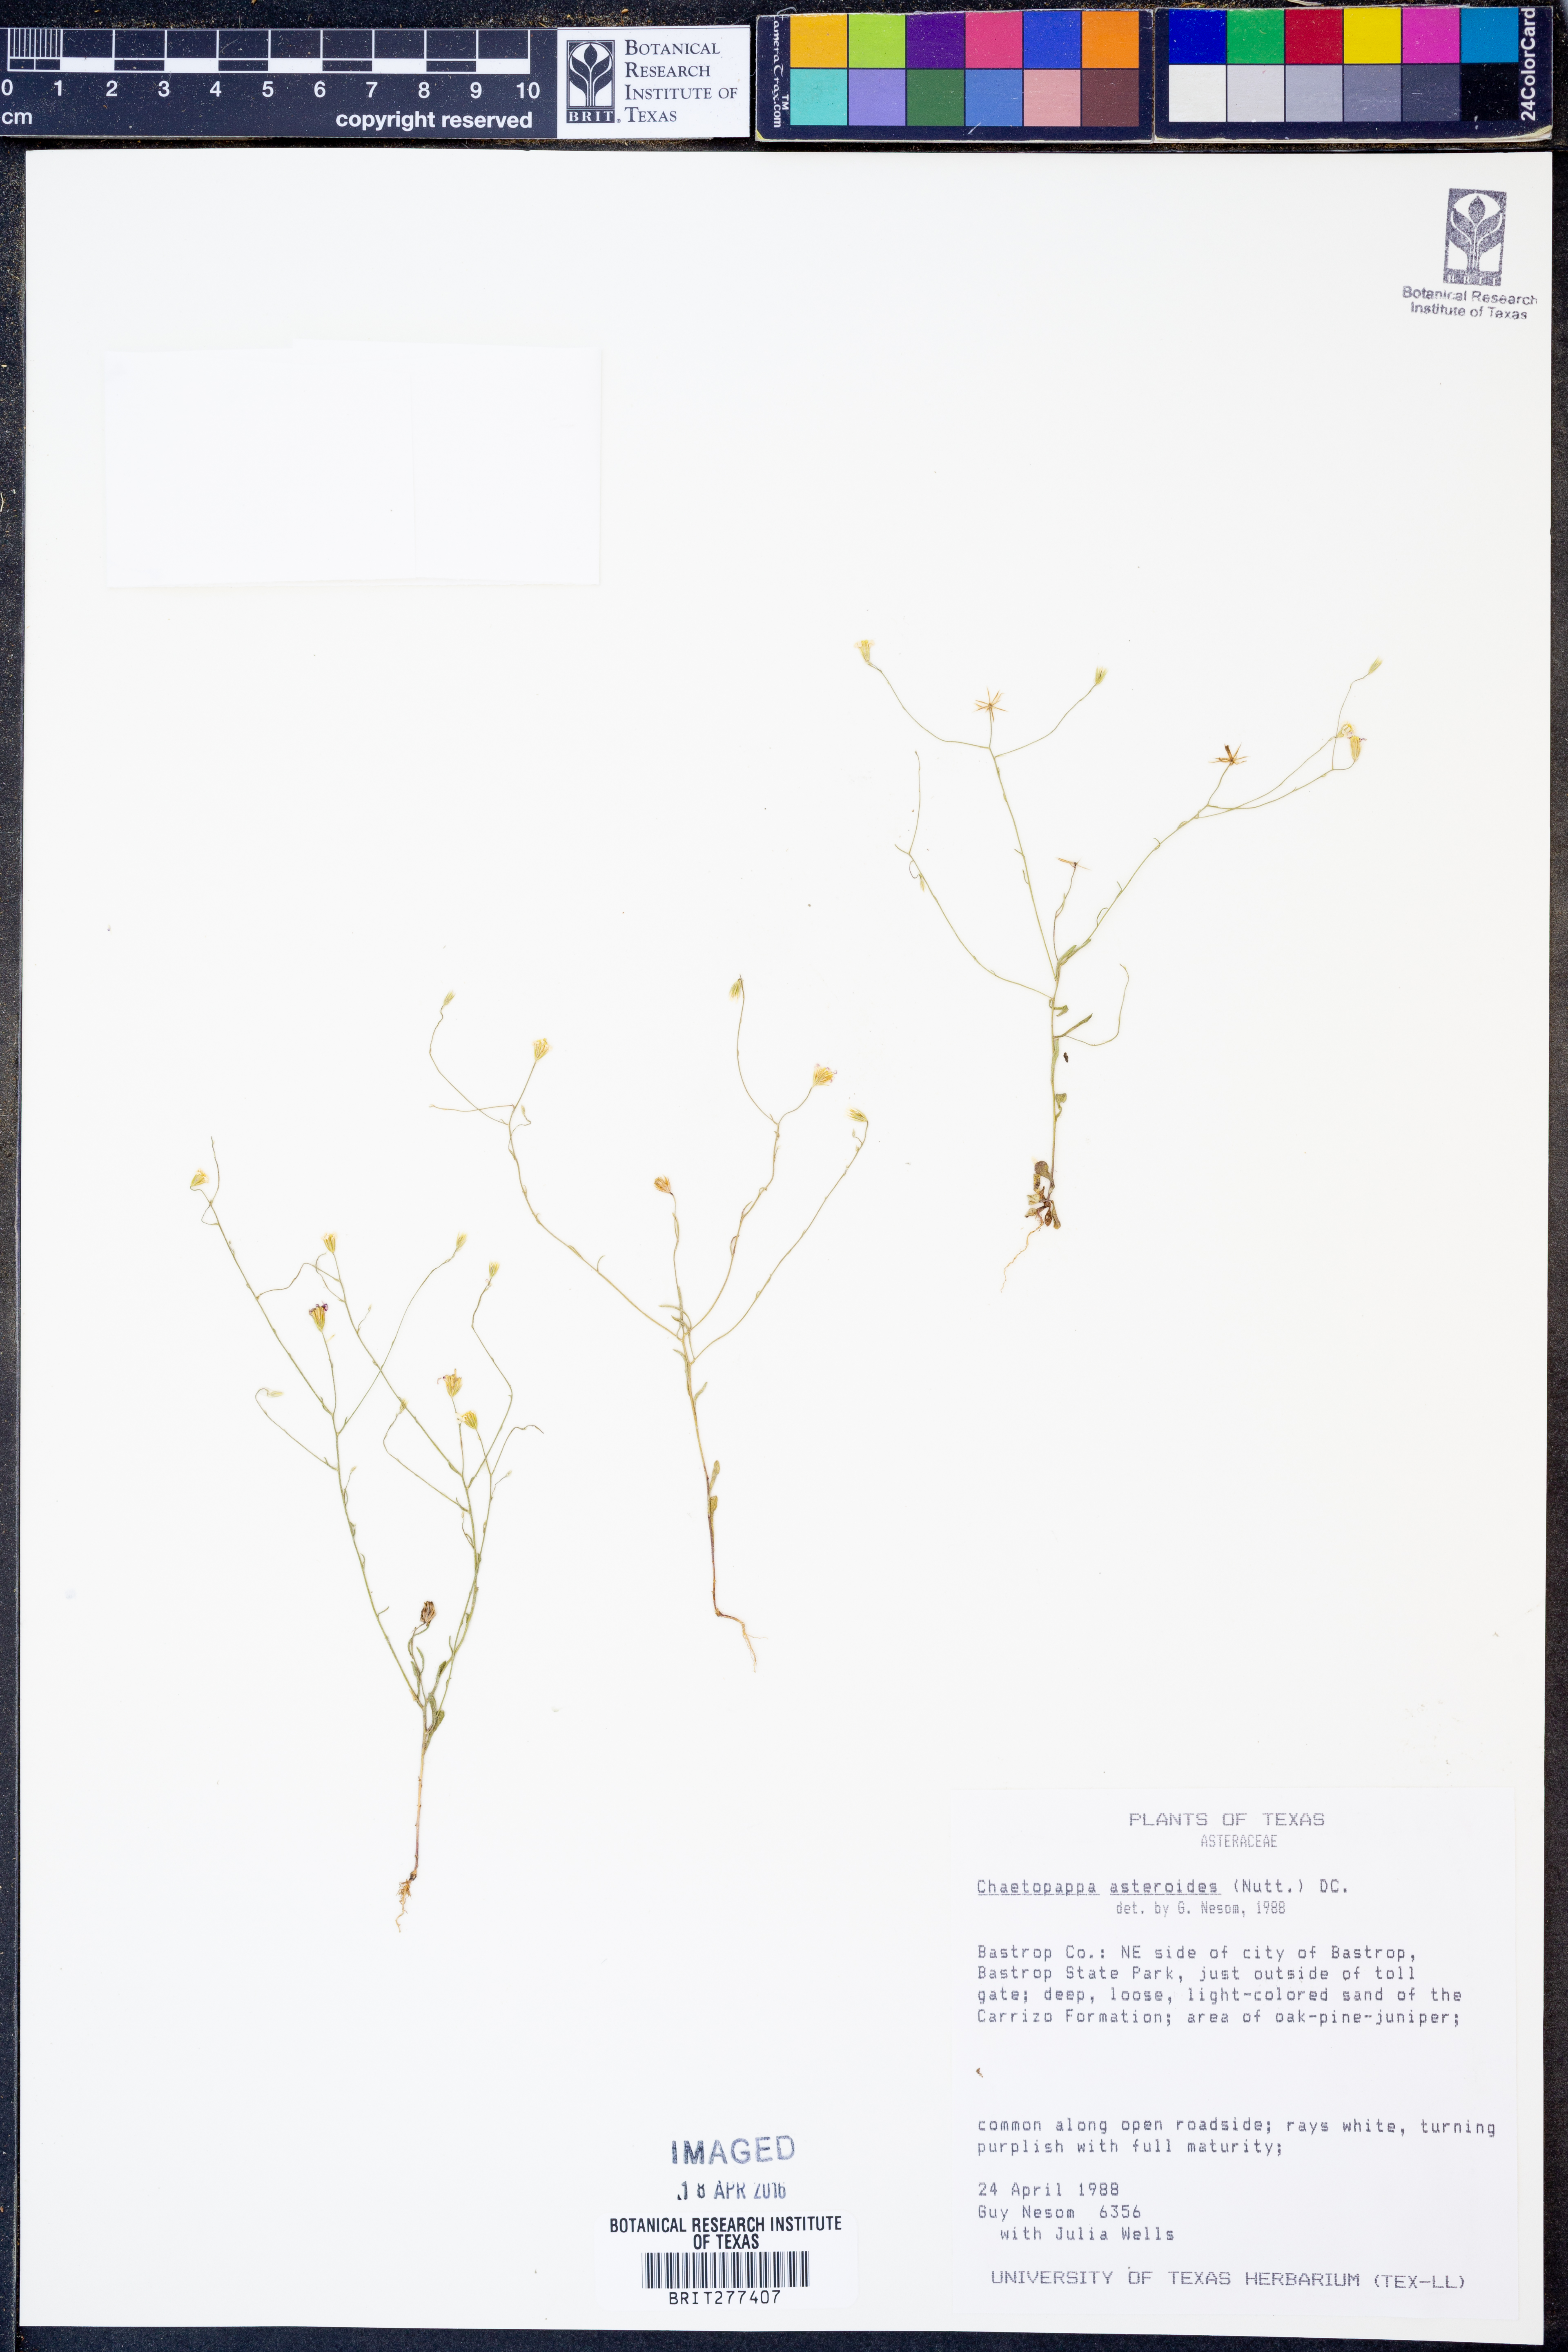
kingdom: Plantae
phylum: Tracheophyta
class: Magnoliopsida
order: Asterales
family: Asteraceae
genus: Chaetopappa
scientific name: Chaetopappa asteroides
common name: Tiny lazy daisy
